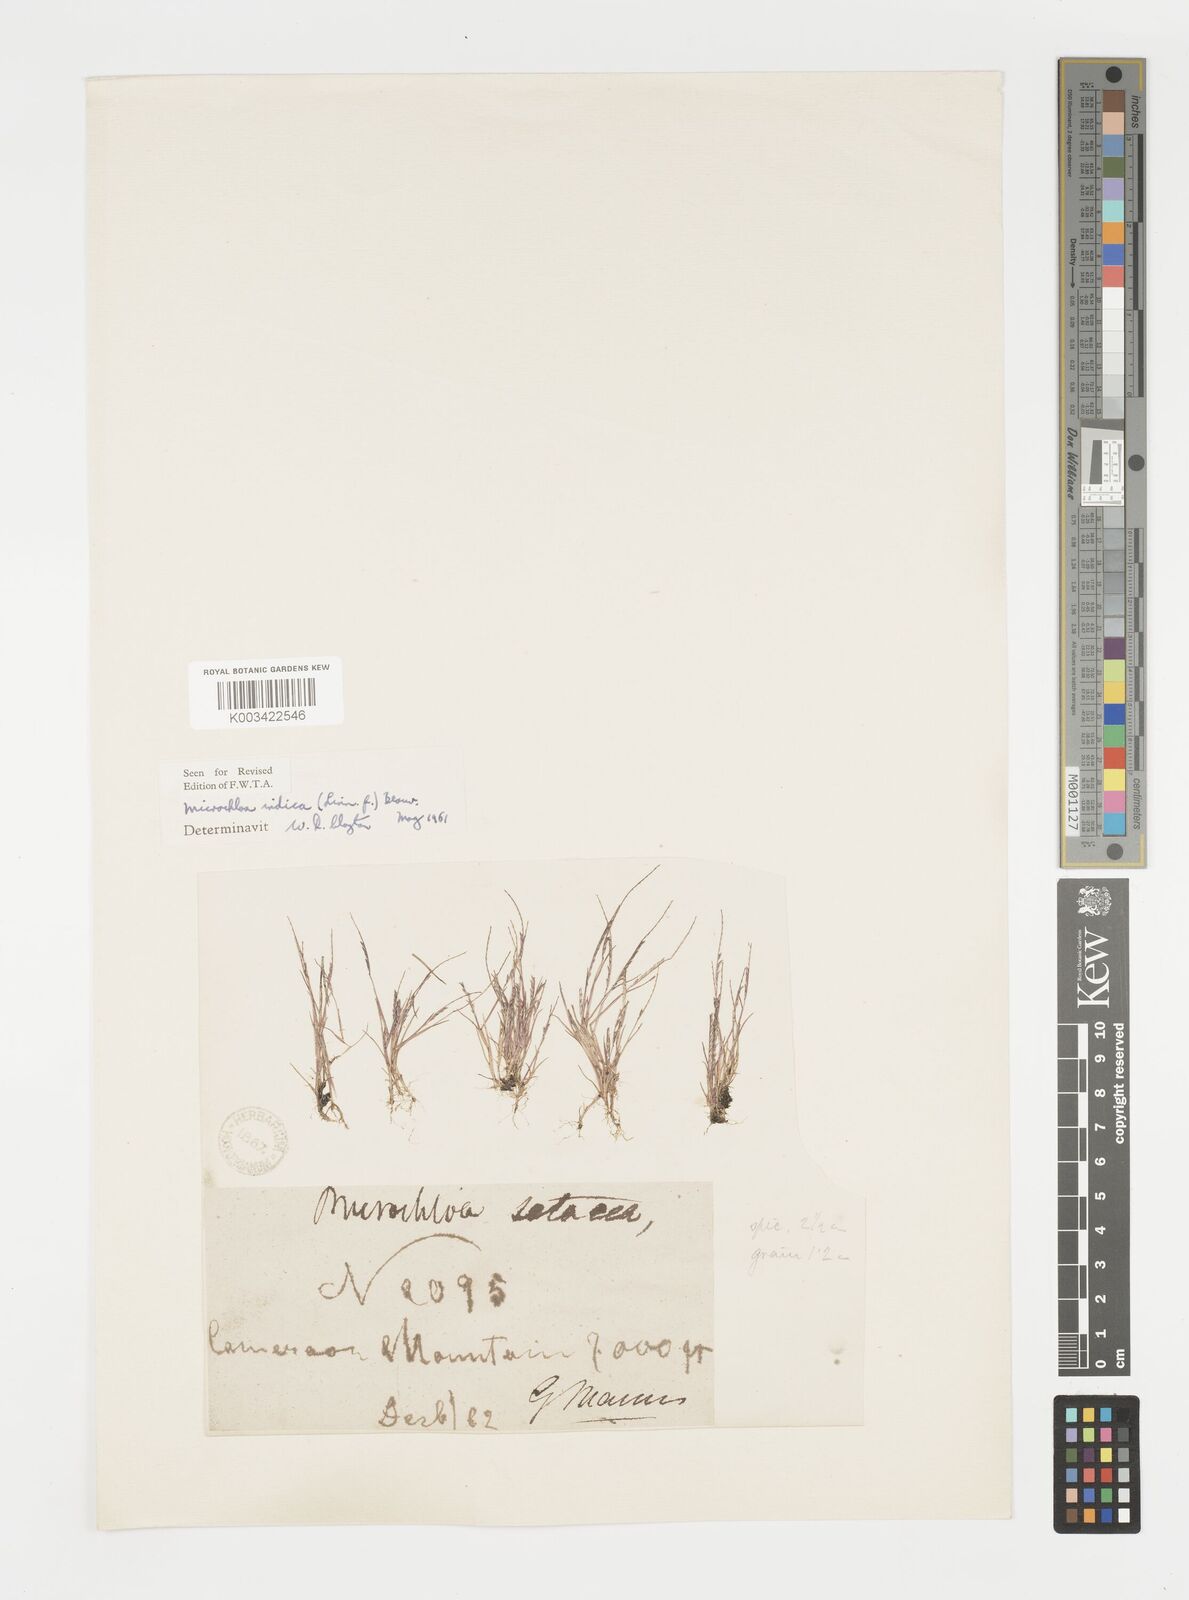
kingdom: Plantae
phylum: Tracheophyta
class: Liliopsida
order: Poales
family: Poaceae
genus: Microchloa
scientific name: Microchloa indica
